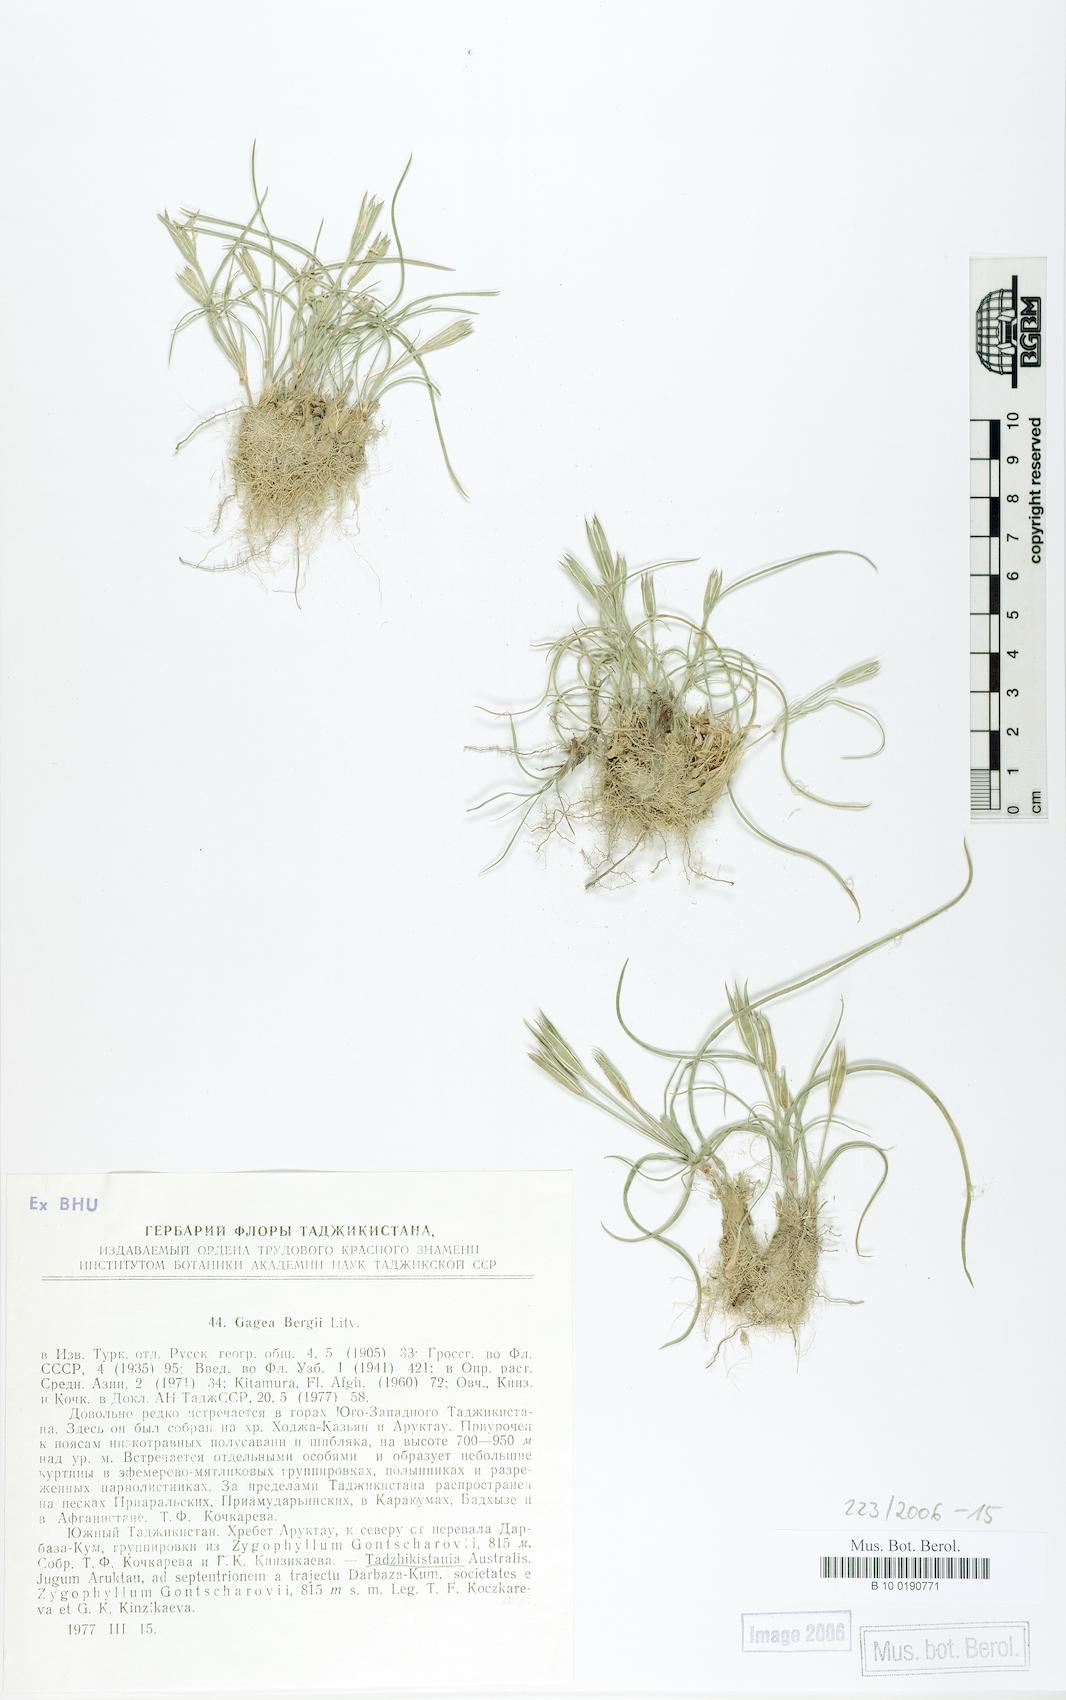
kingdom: Plantae
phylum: Tracheophyta
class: Liliopsida
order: Liliales
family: Liliaceae
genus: Gagea
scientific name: Gagea bergii
